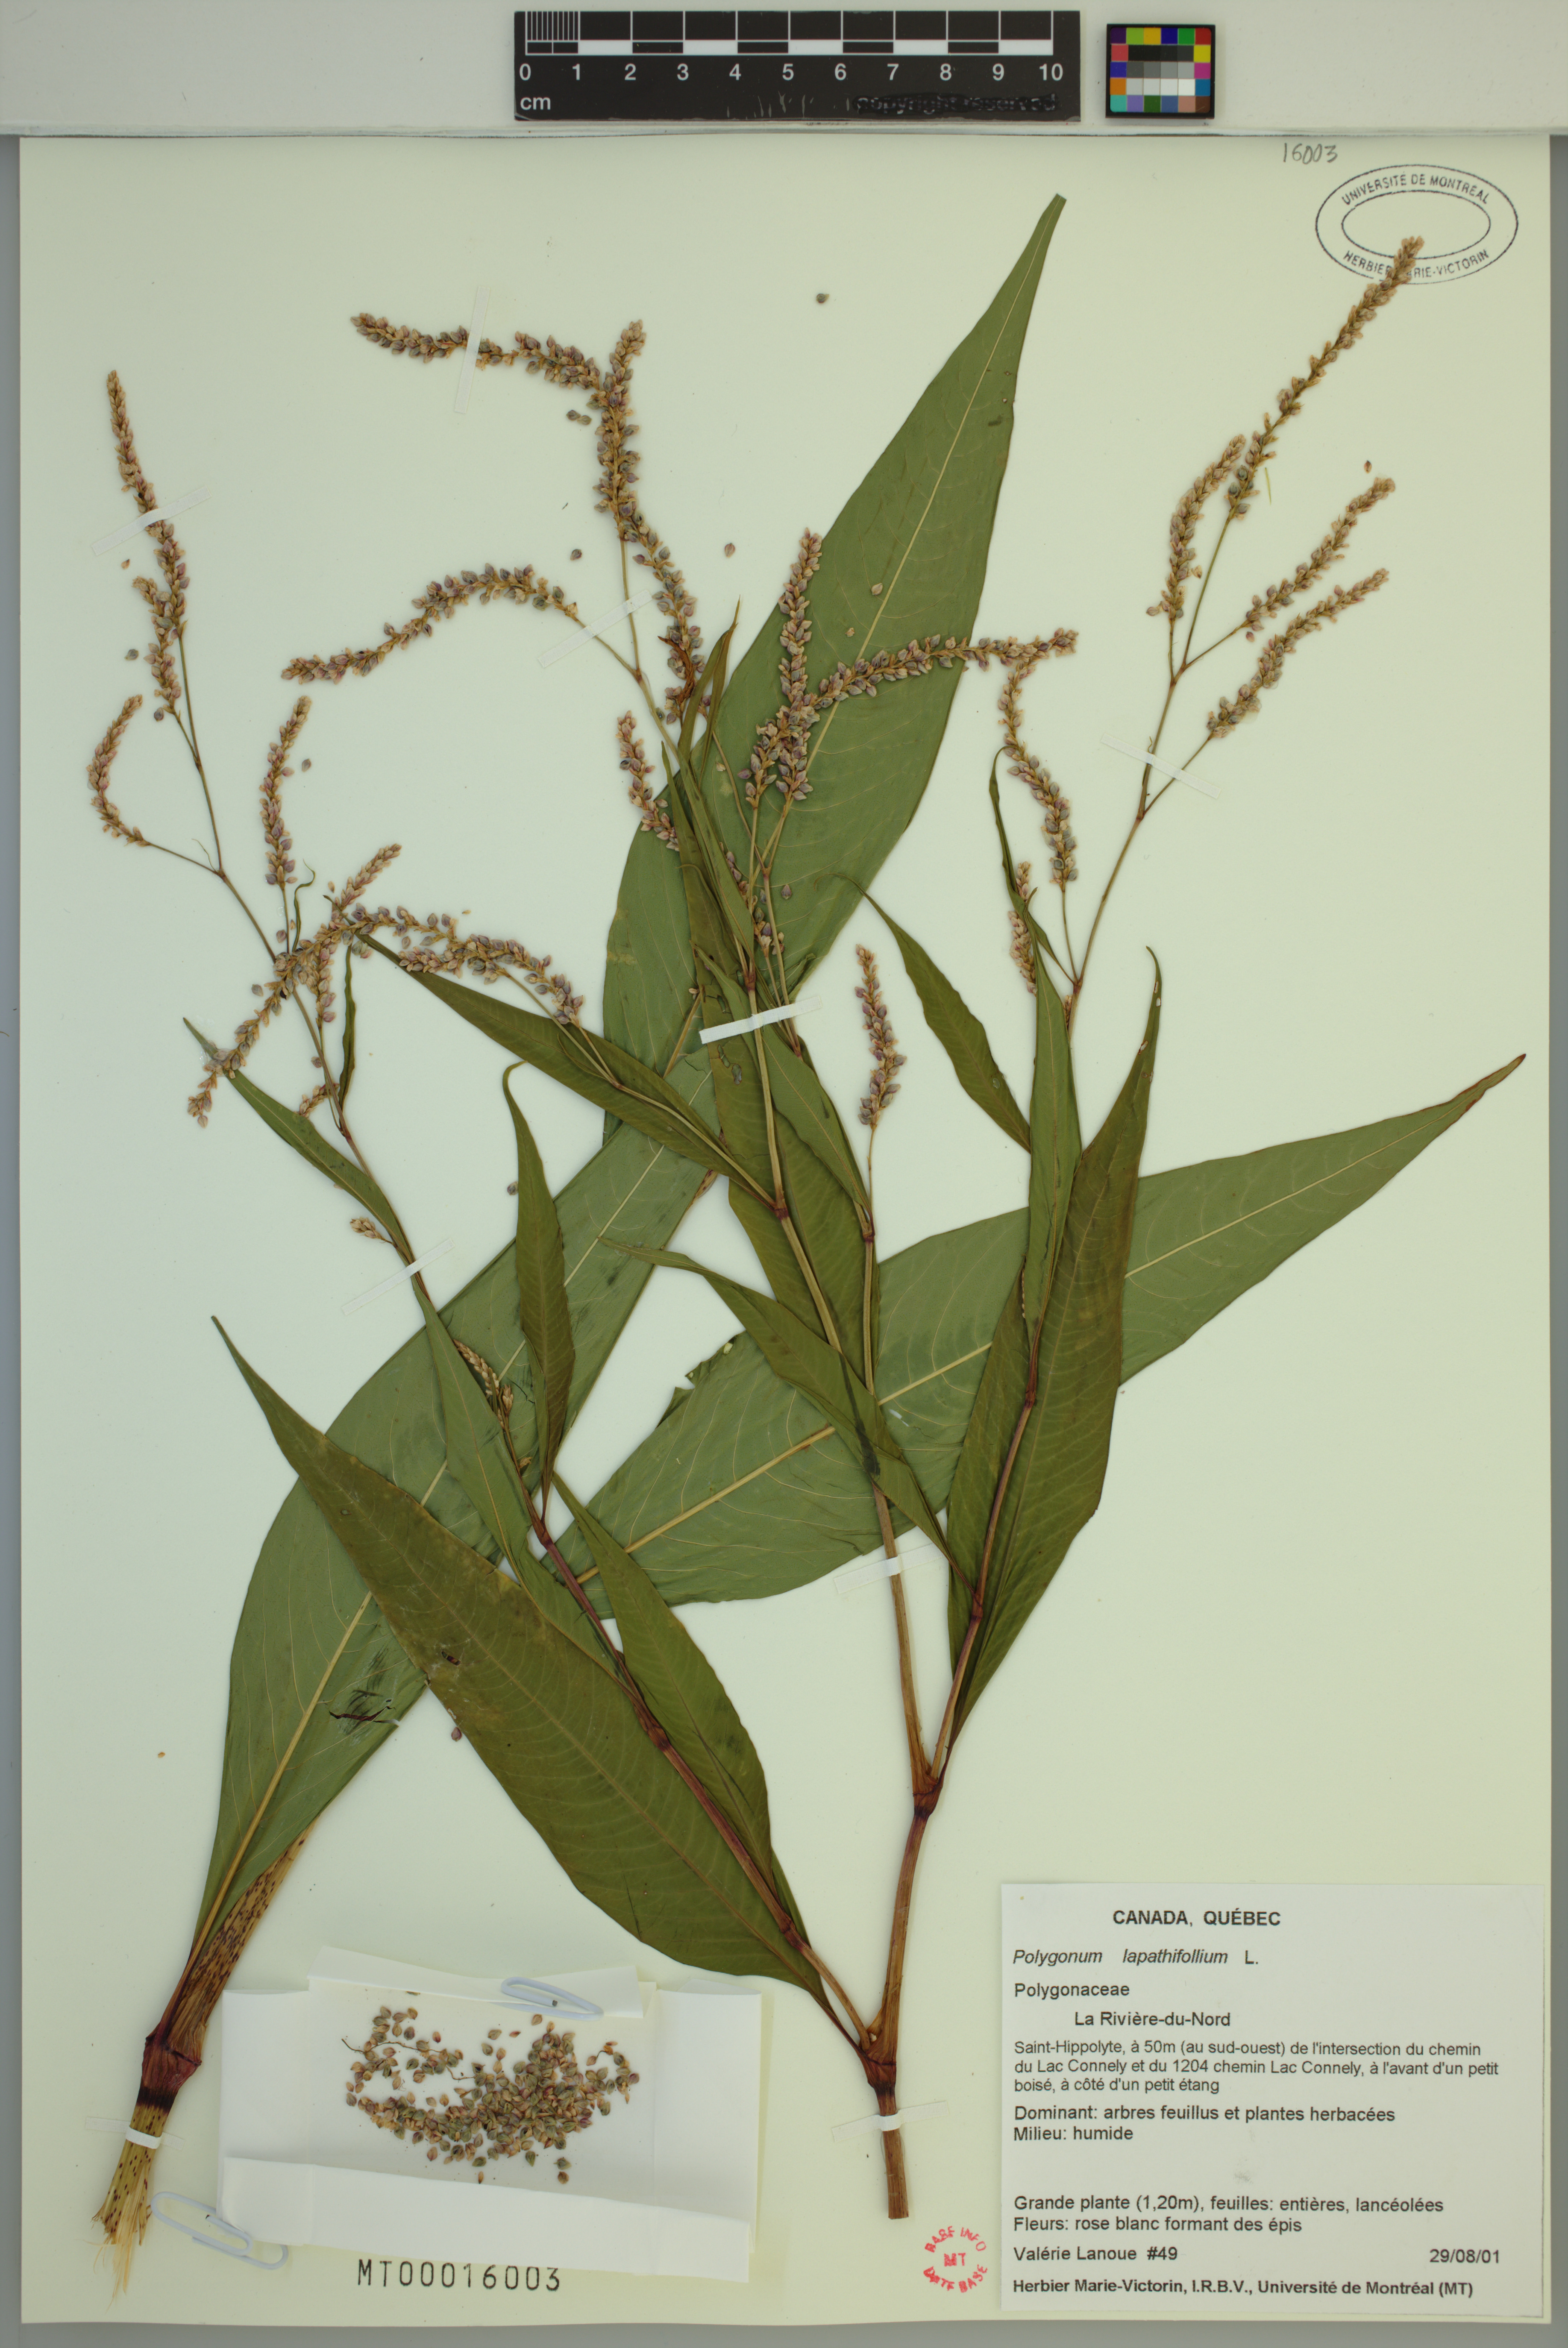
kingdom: Plantae
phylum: Tracheophyta
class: Magnoliopsida
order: Caryophyllales
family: Polygonaceae
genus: Persicaria
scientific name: Persicaria lapathifolia
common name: Curlytop knotweed
